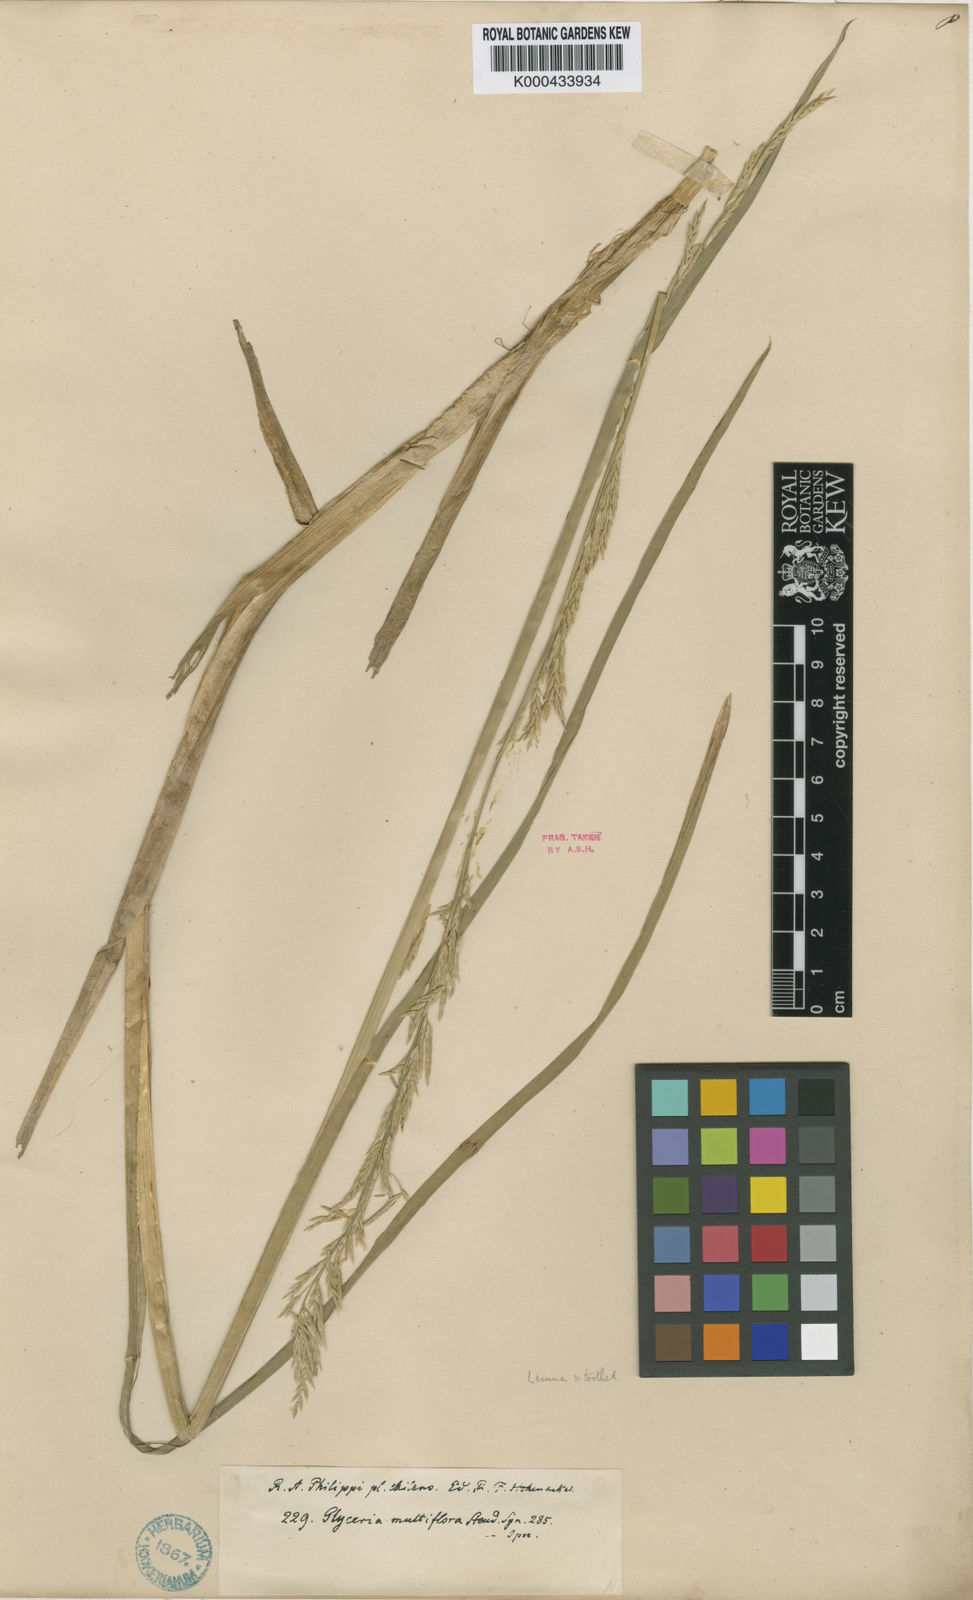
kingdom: Plantae
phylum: Tracheophyta
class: Liliopsida
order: Poales
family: Poaceae
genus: Glyceria
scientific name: Glyceria multiflora
